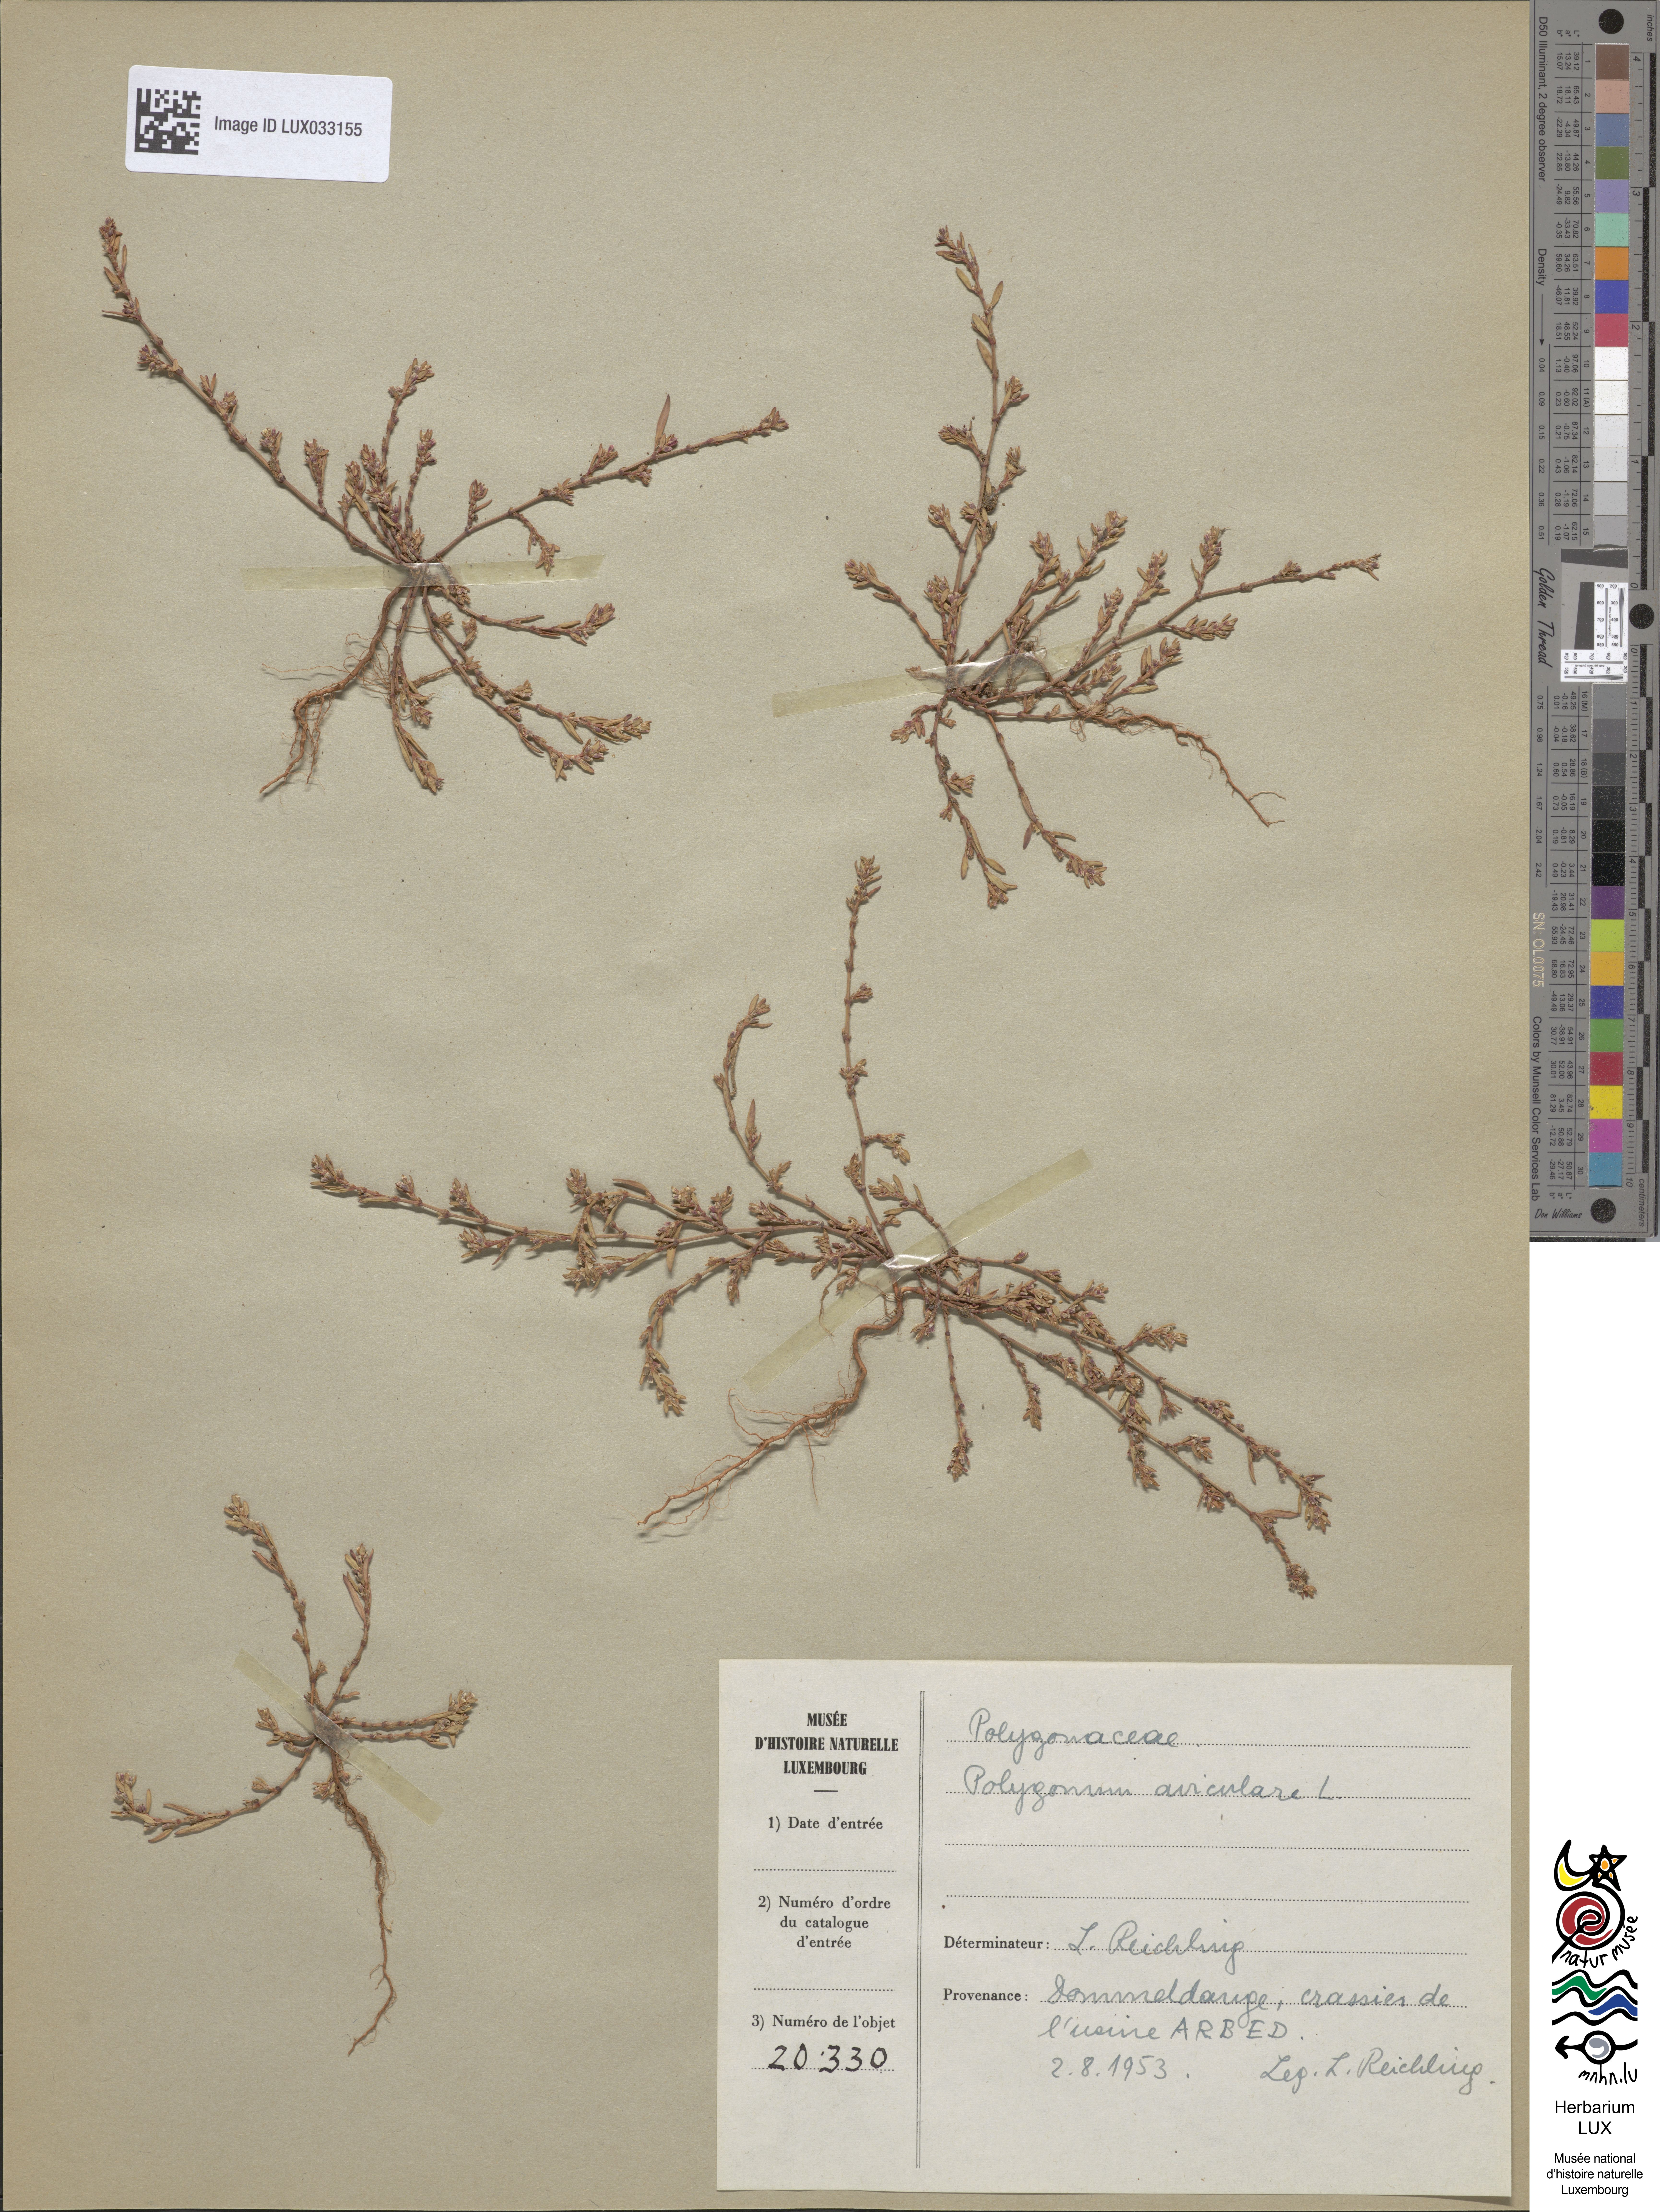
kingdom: Plantae
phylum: Tracheophyta
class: Magnoliopsida
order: Caryophyllales
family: Polygonaceae
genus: Polygonum
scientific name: Polygonum aviculare
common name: Prostrate knotweed
